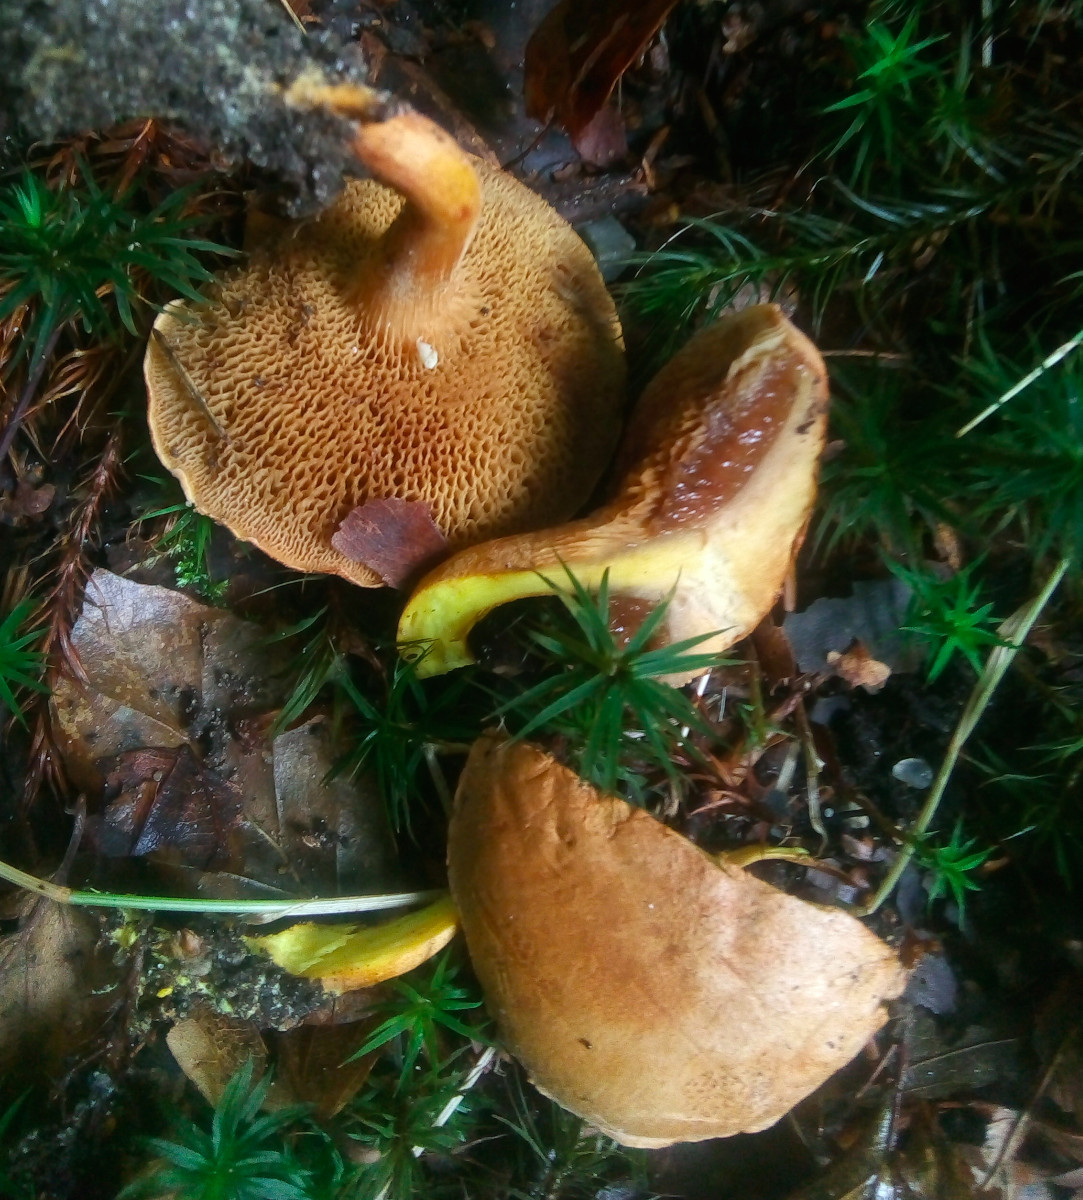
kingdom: Fungi
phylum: Basidiomycota
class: Agaricomycetes
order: Boletales
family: Boletaceae
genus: Chalciporus
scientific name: Chalciporus piperatus
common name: peberrørhat
